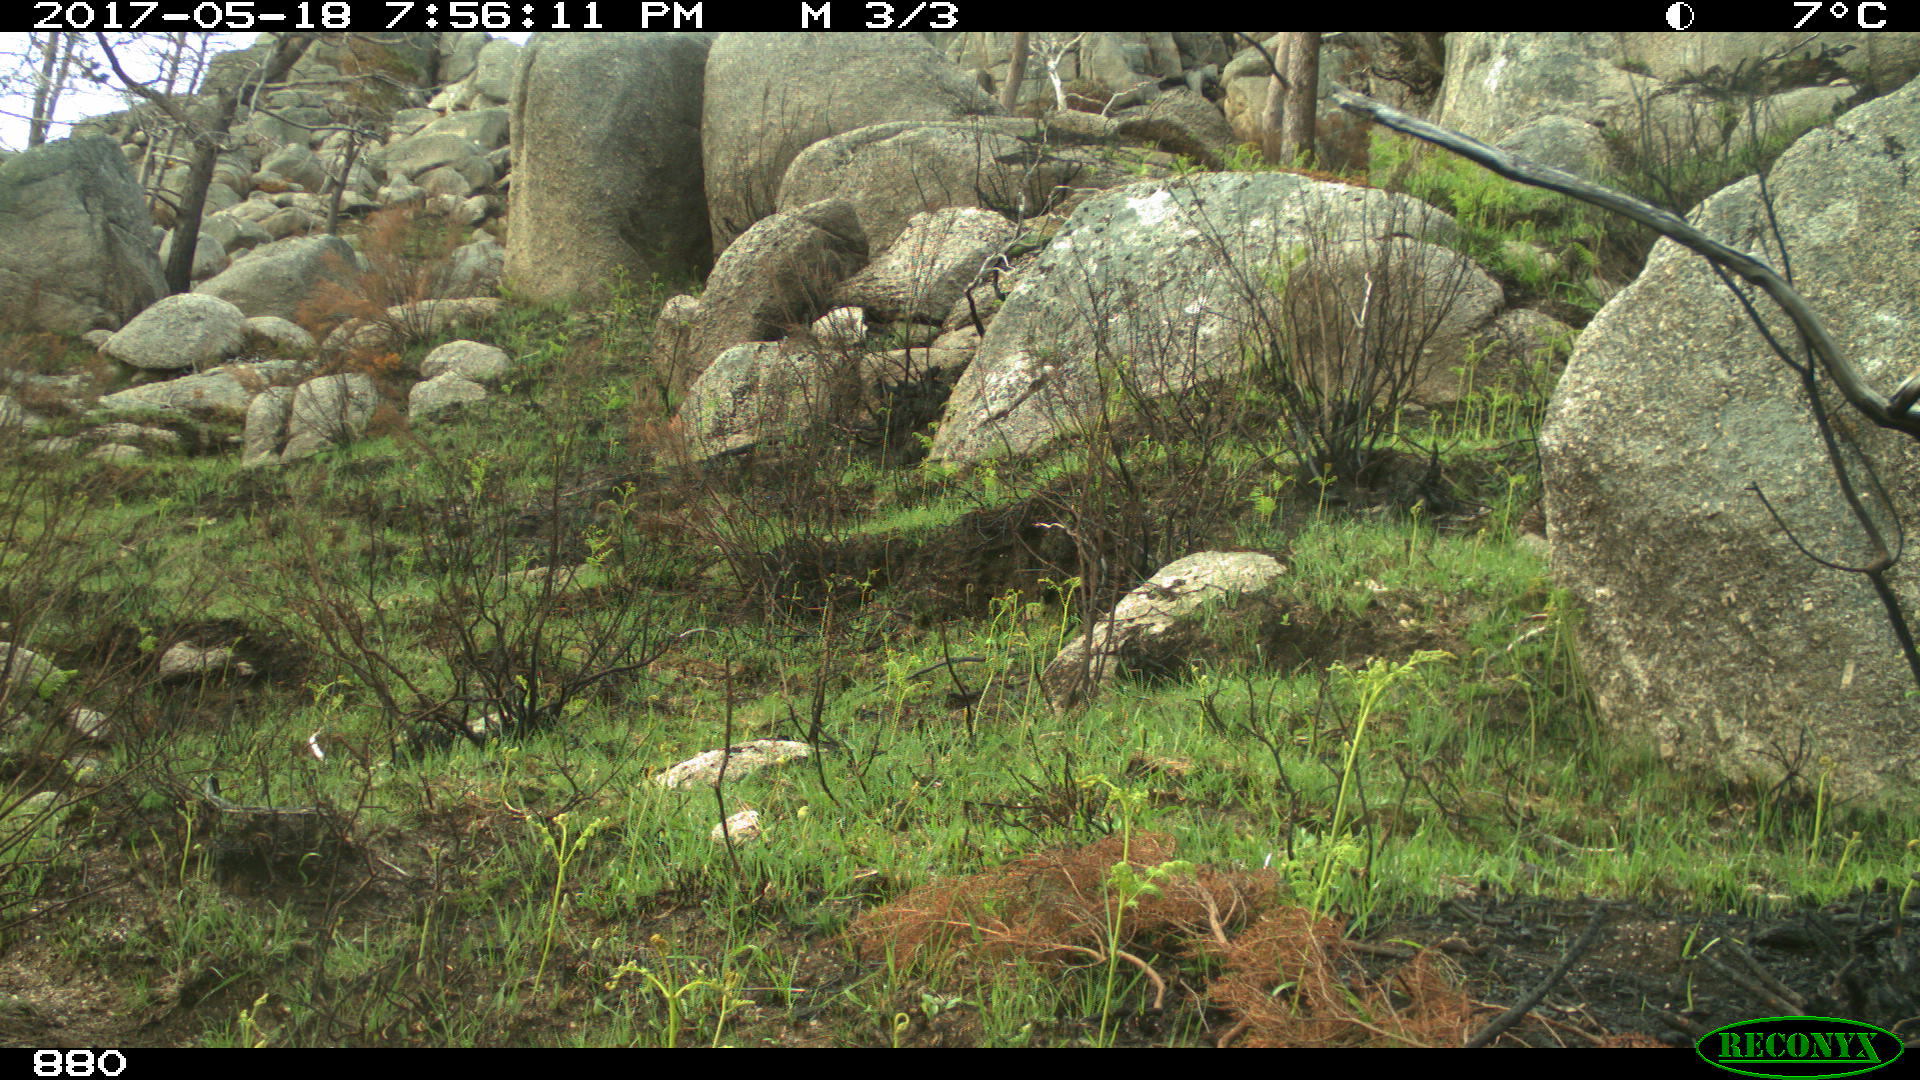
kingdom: Animalia
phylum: Chordata
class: Mammalia
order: Perissodactyla
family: Equidae
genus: Equus
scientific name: Equus caballus
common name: Horse
